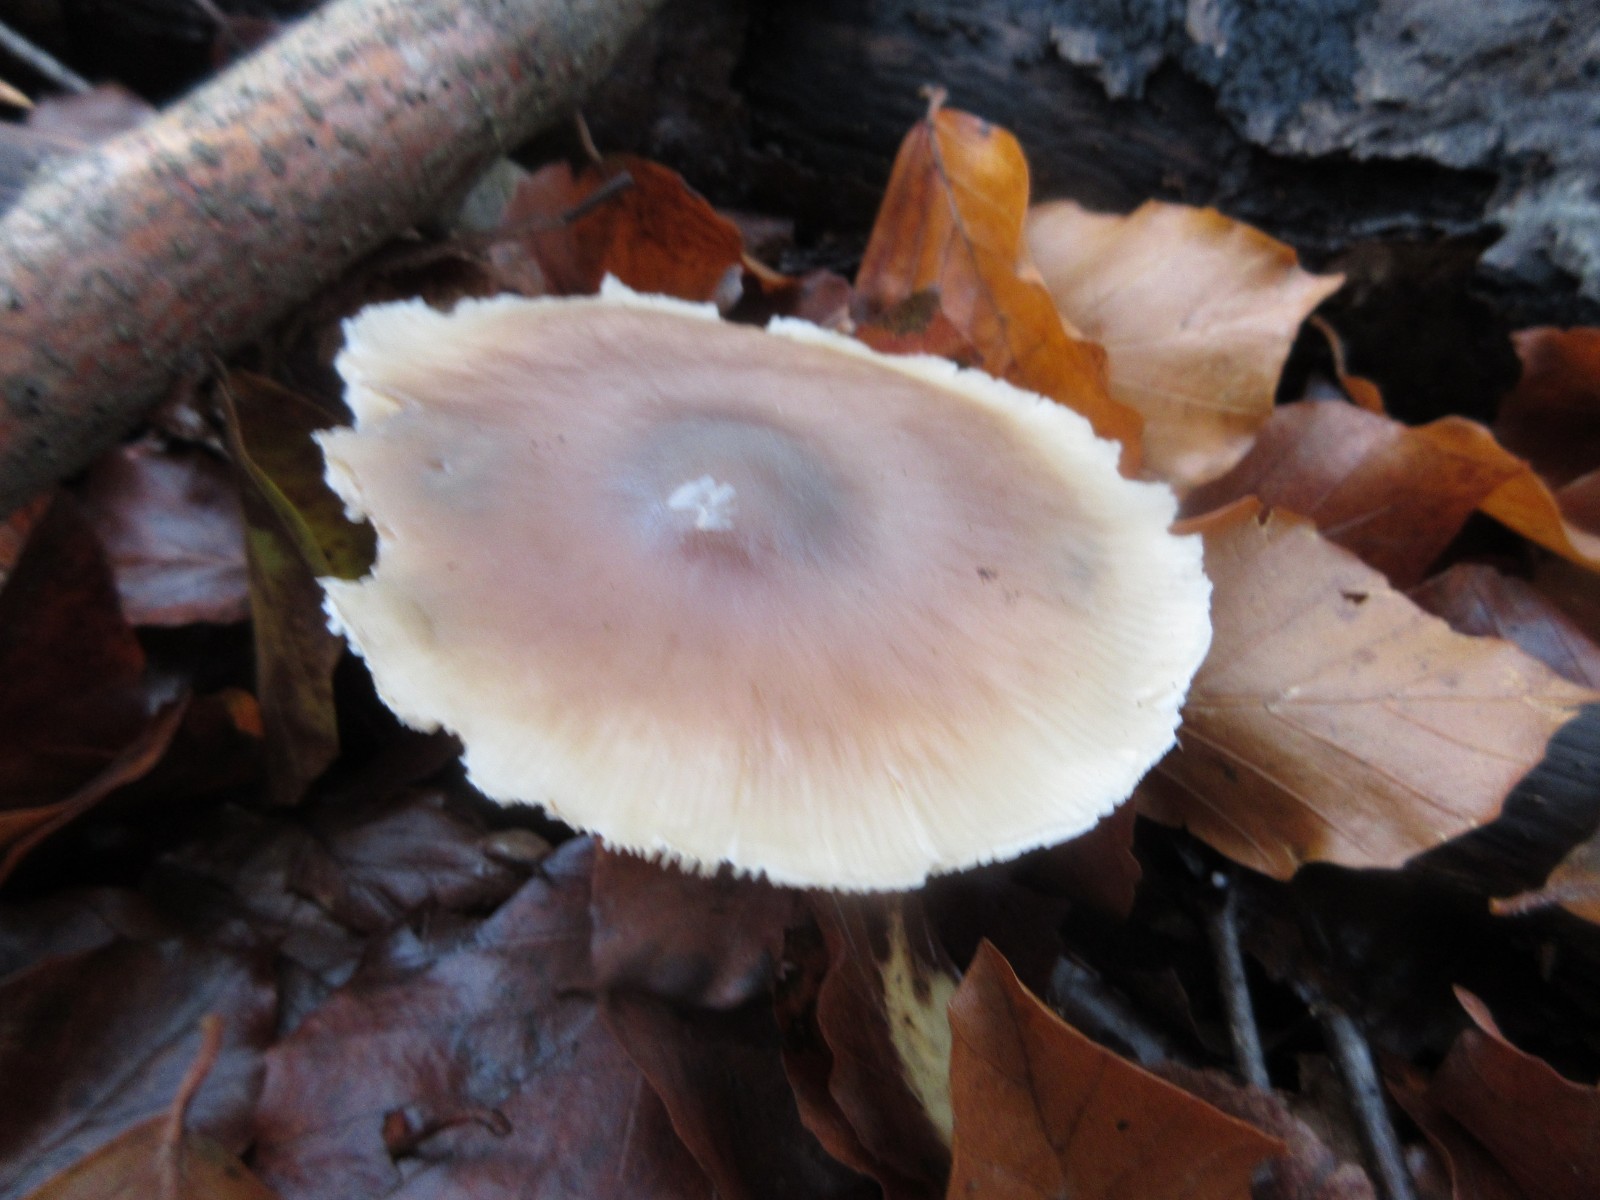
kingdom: Fungi
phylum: Basidiomycota
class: Agaricomycetes
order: Agaricales
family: Omphalotaceae
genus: Rhodocollybia
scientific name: Rhodocollybia asema
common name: horngrå fladhat
